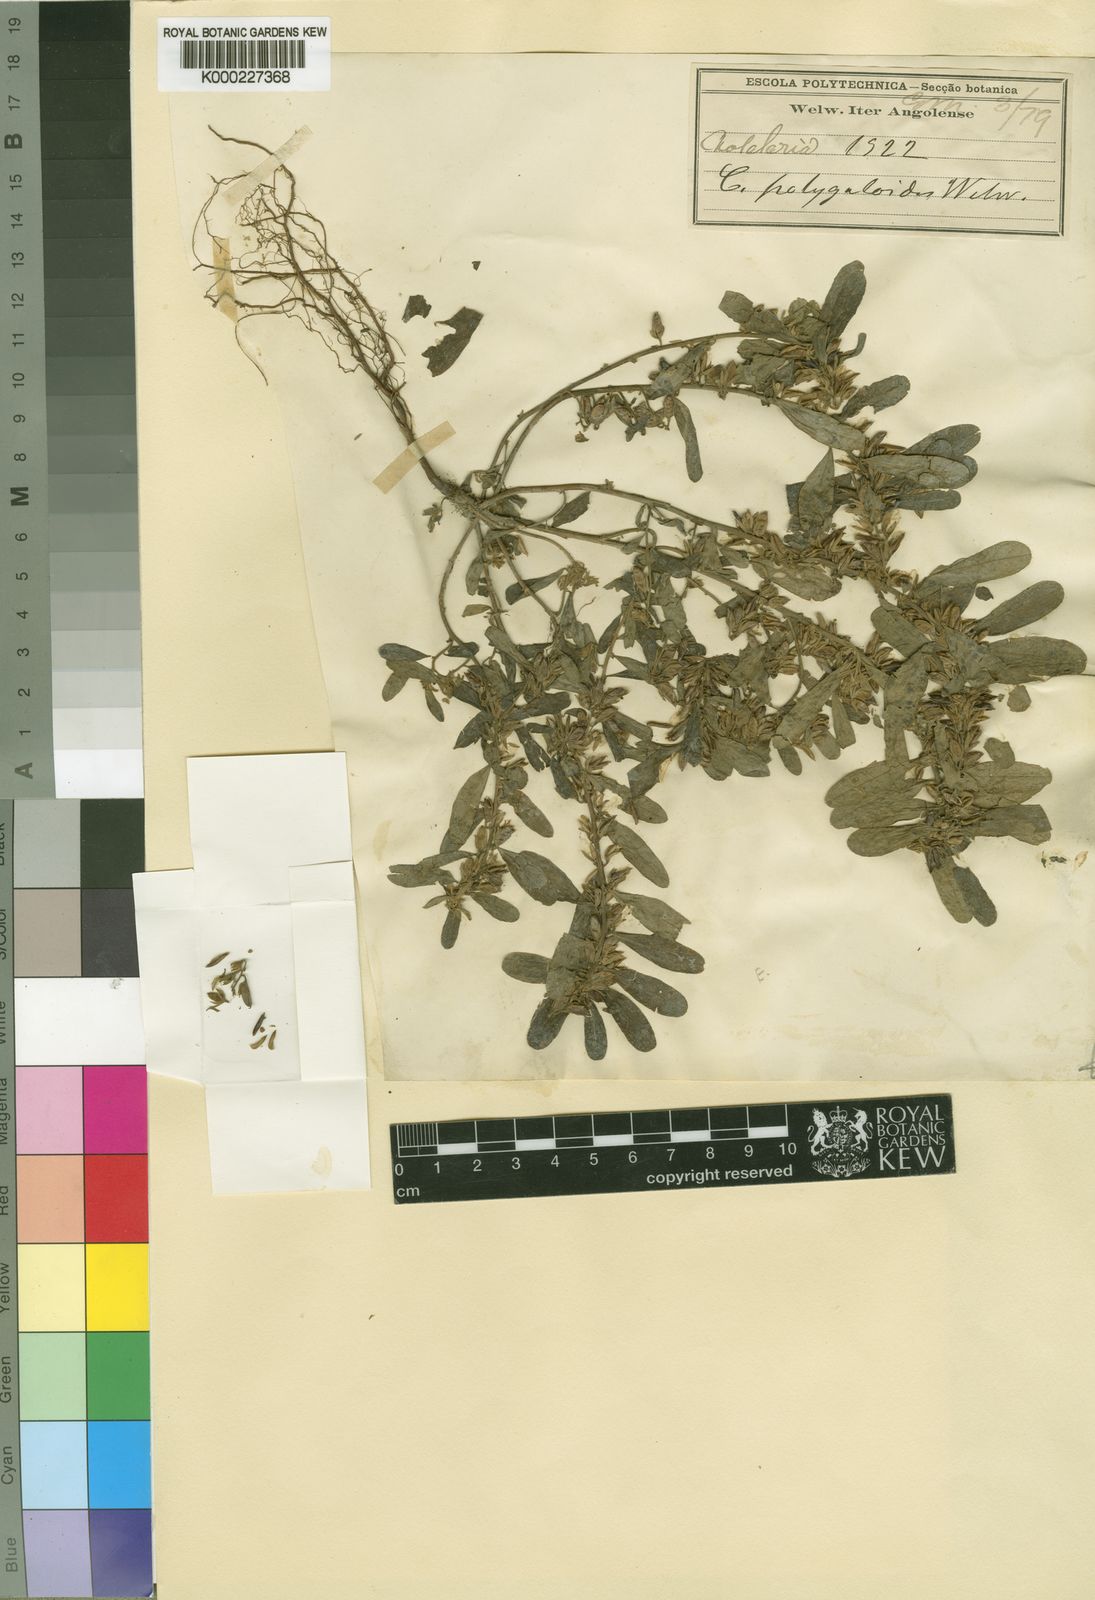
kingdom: Plantae
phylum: Tracheophyta
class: Magnoliopsida
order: Fabales
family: Fabaceae
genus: Crotalaria
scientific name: Crotalaria polygaloides
